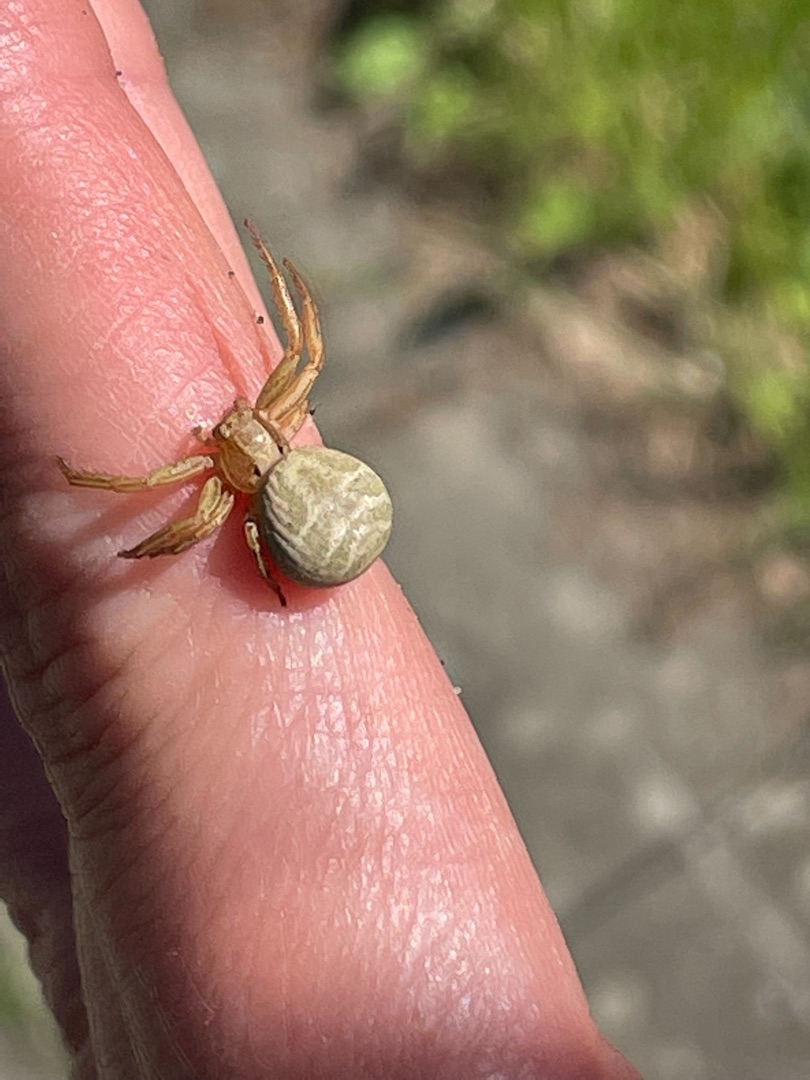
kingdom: Animalia
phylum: Arthropoda
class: Arachnida
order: Araneae
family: Thomisidae
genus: Xysticus
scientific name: Xysticus
